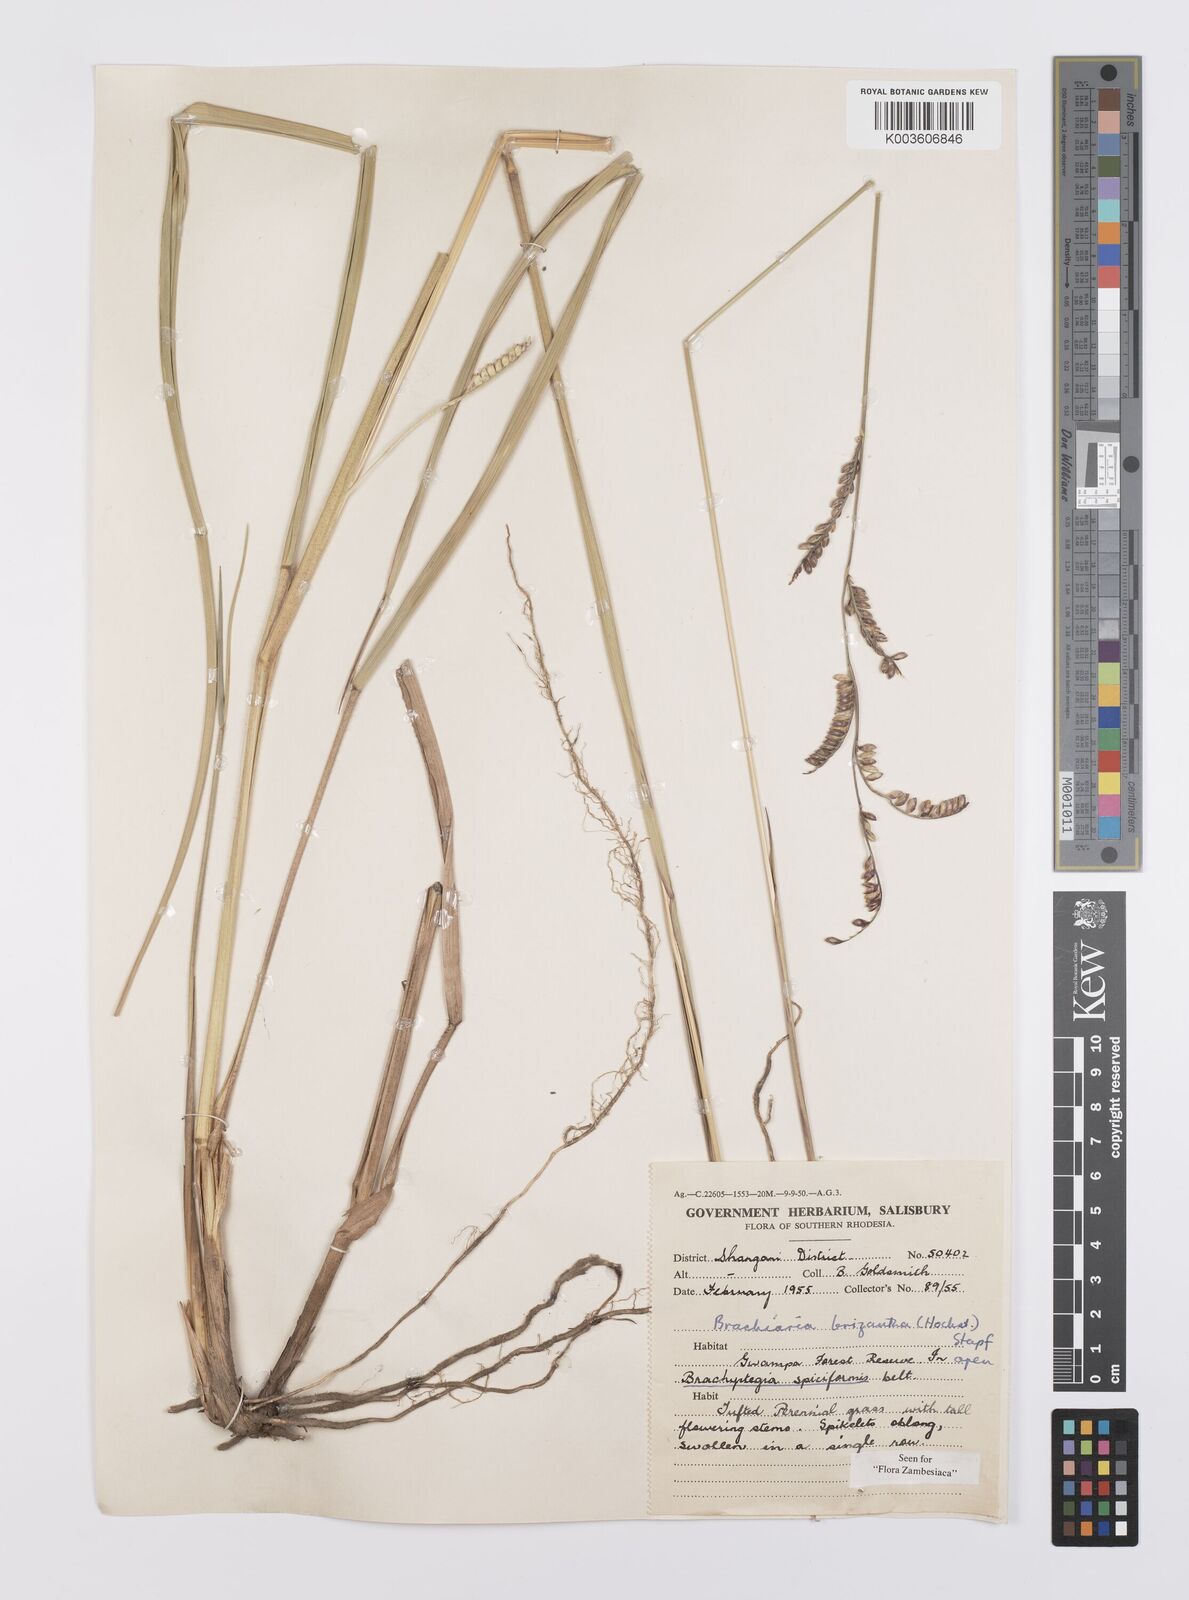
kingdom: Plantae
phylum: Tracheophyta
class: Liliopsida
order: Poales
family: Poaceae
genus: Urochloa
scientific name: Urochloa brizantha
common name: Palisade signalgrass
